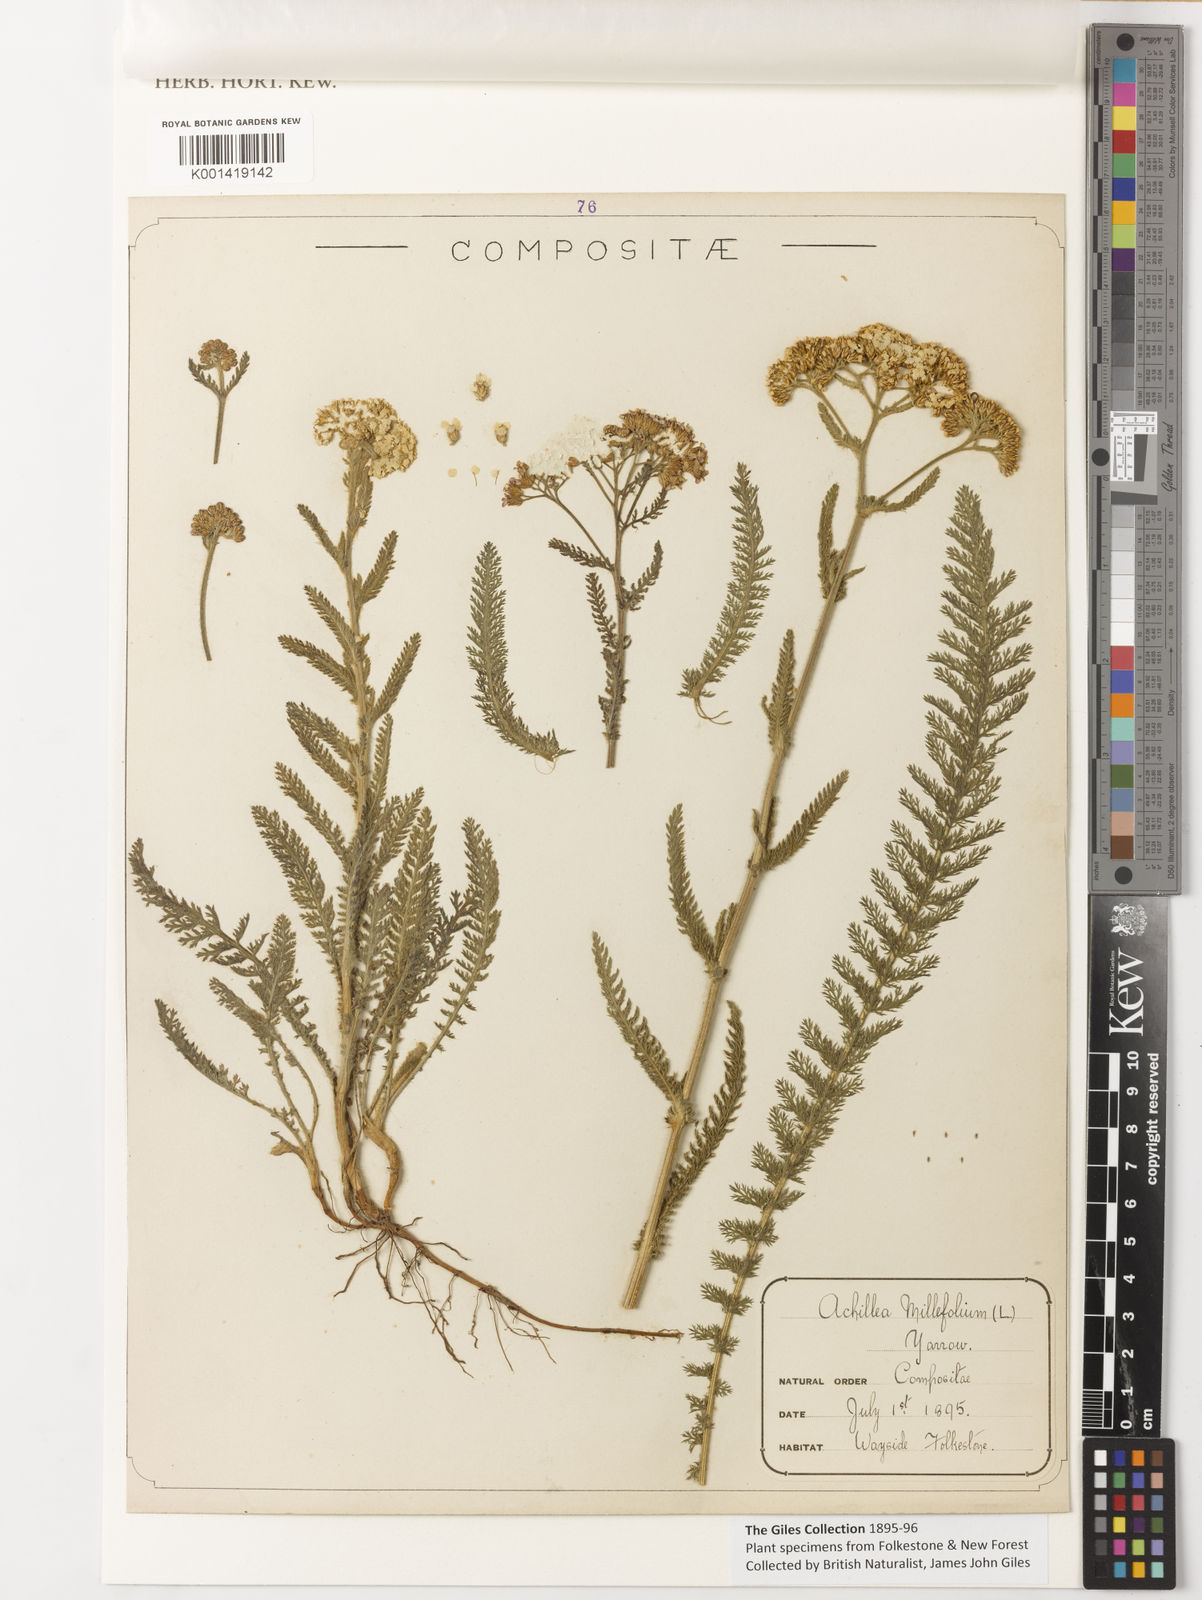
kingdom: Plantae
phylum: Tracheophyta
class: Magnoliopsida
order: Asterales
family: Asteraceae
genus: Achillea
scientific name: Achillea millefolium
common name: Yarrow
